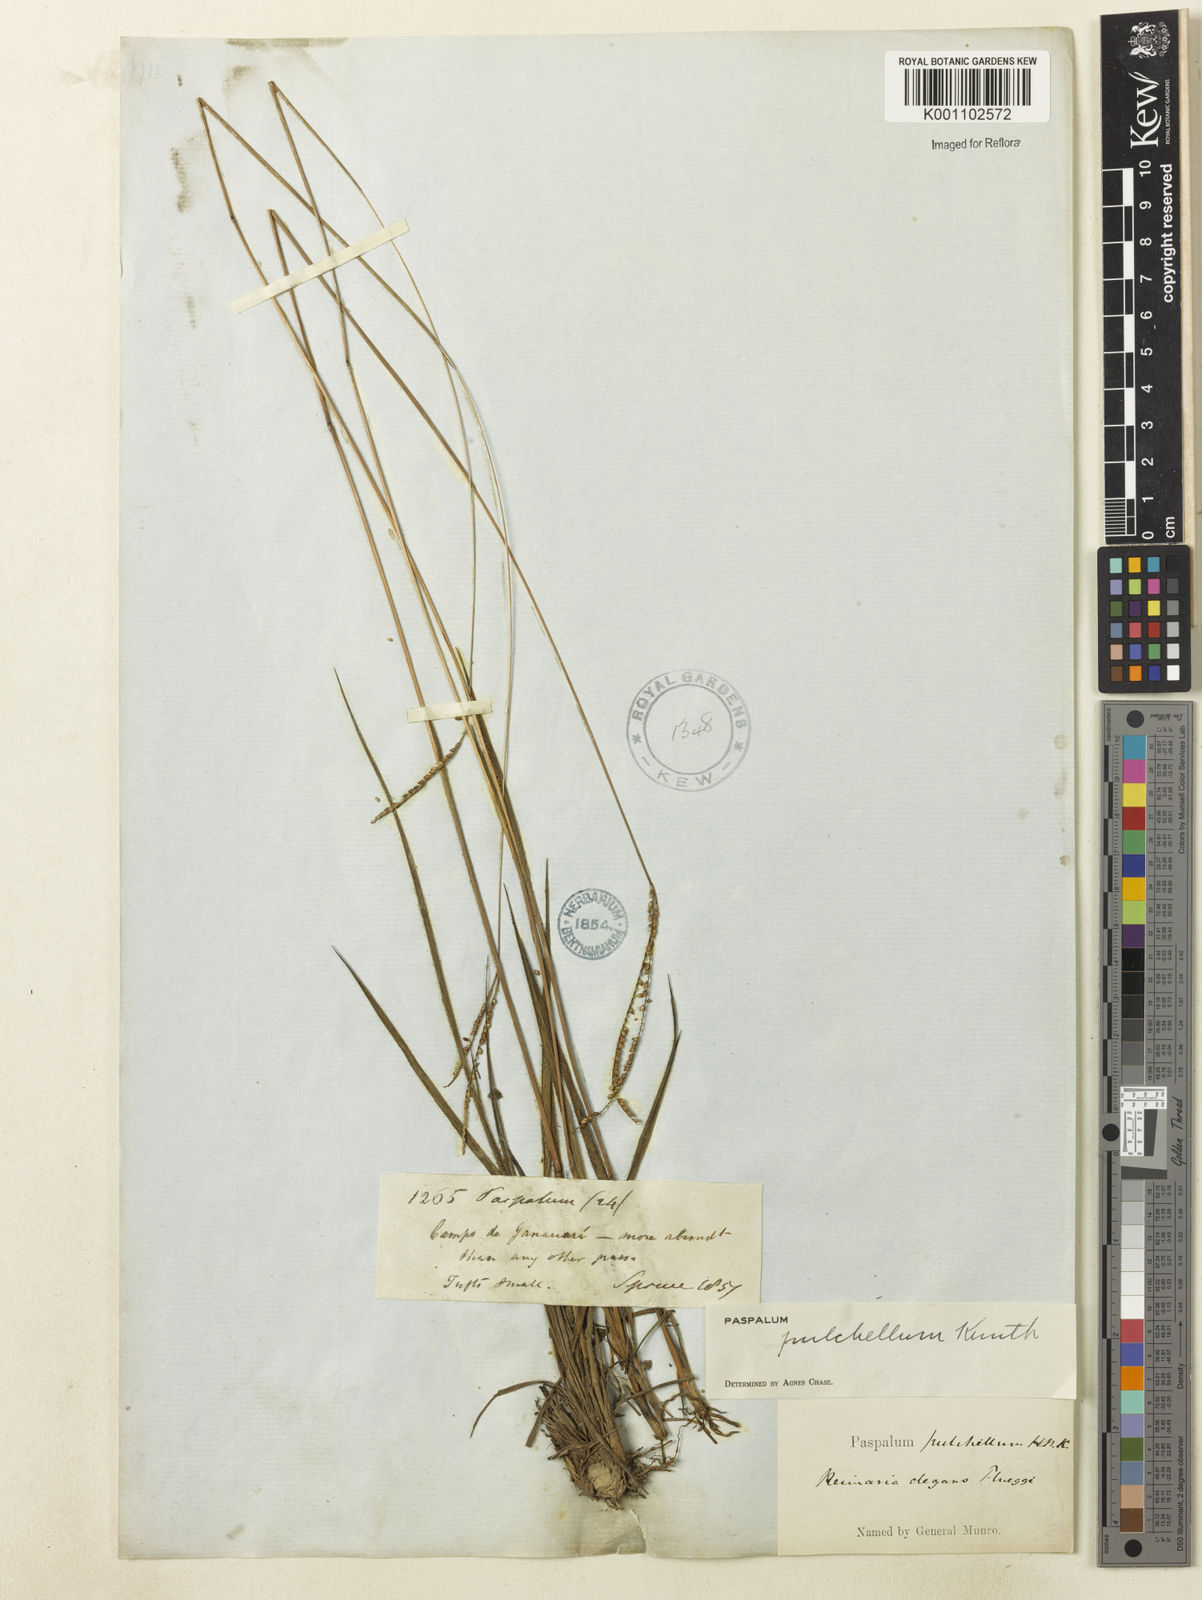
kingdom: Plantae
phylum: Tracheophyta
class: Liliopsida
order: Poales
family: Poaceae
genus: Paspalum
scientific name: Paspalum pulchellum
